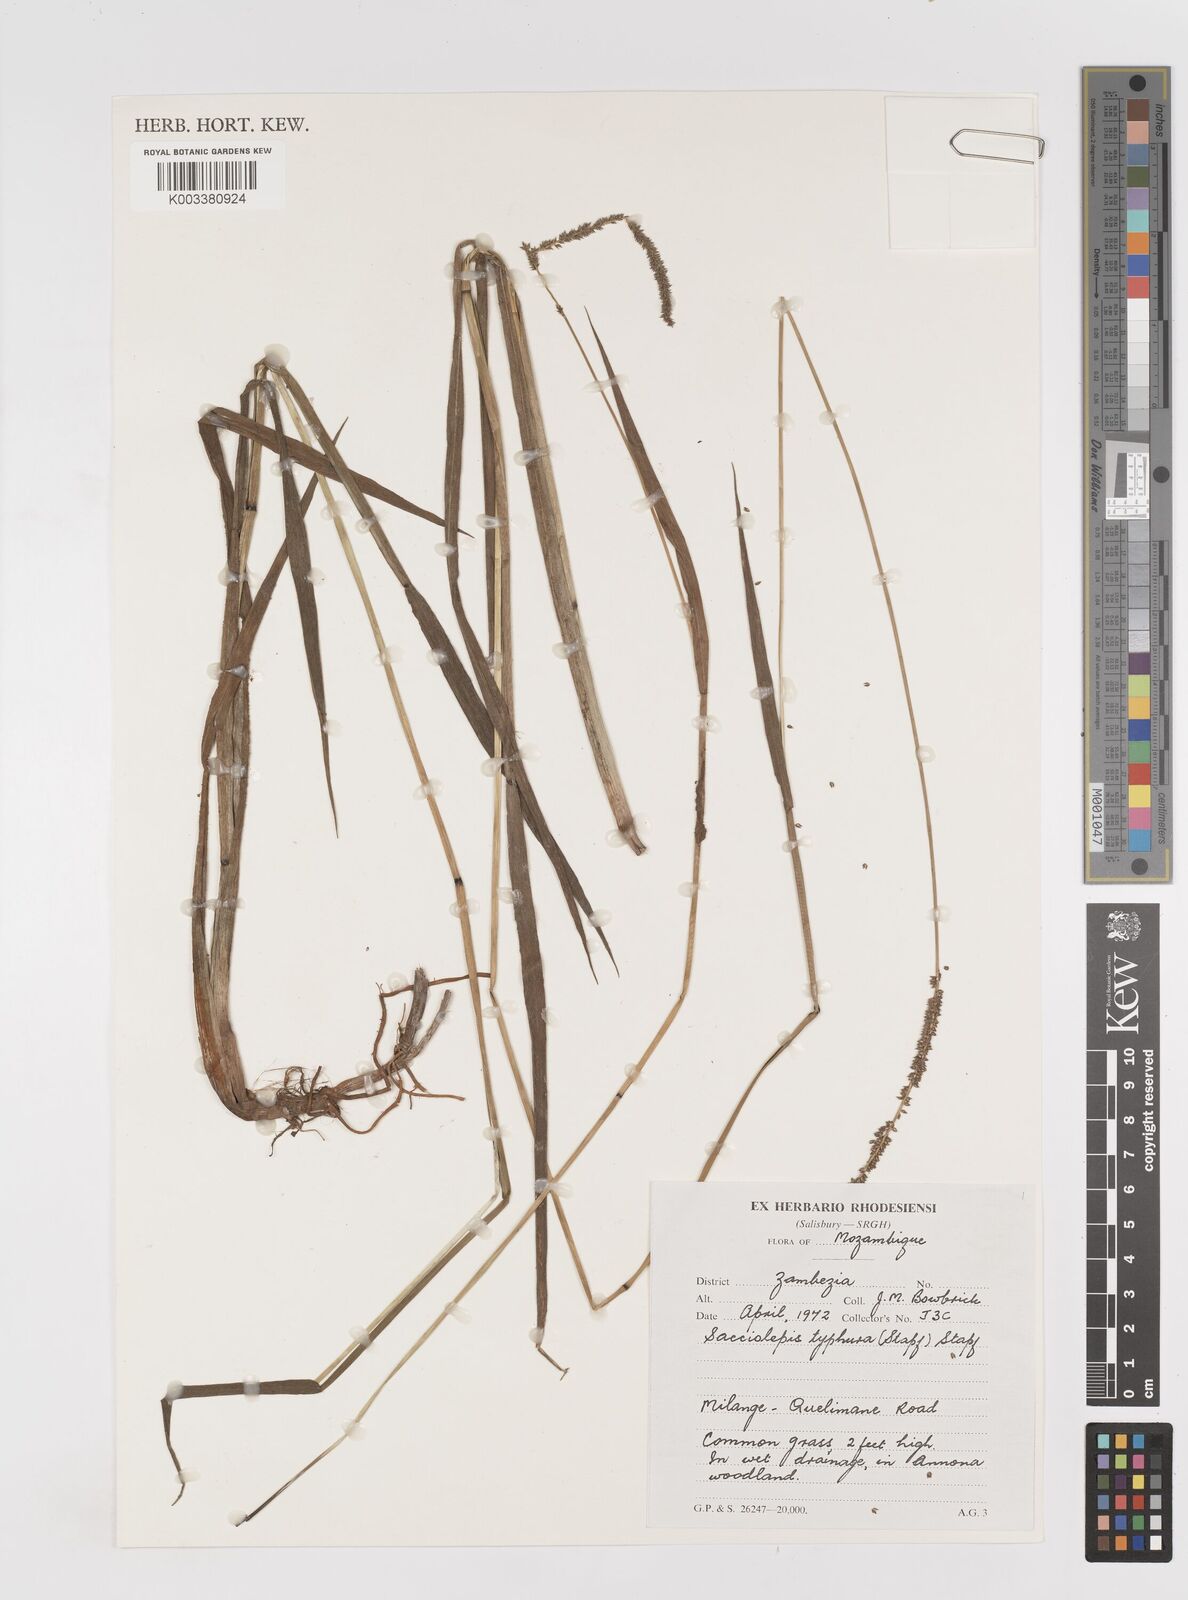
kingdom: Plantae
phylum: Tracheophyta
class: Liliopsida
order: Poales
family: Poaceae
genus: Sacciolepis
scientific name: Sacciolepis typhura
